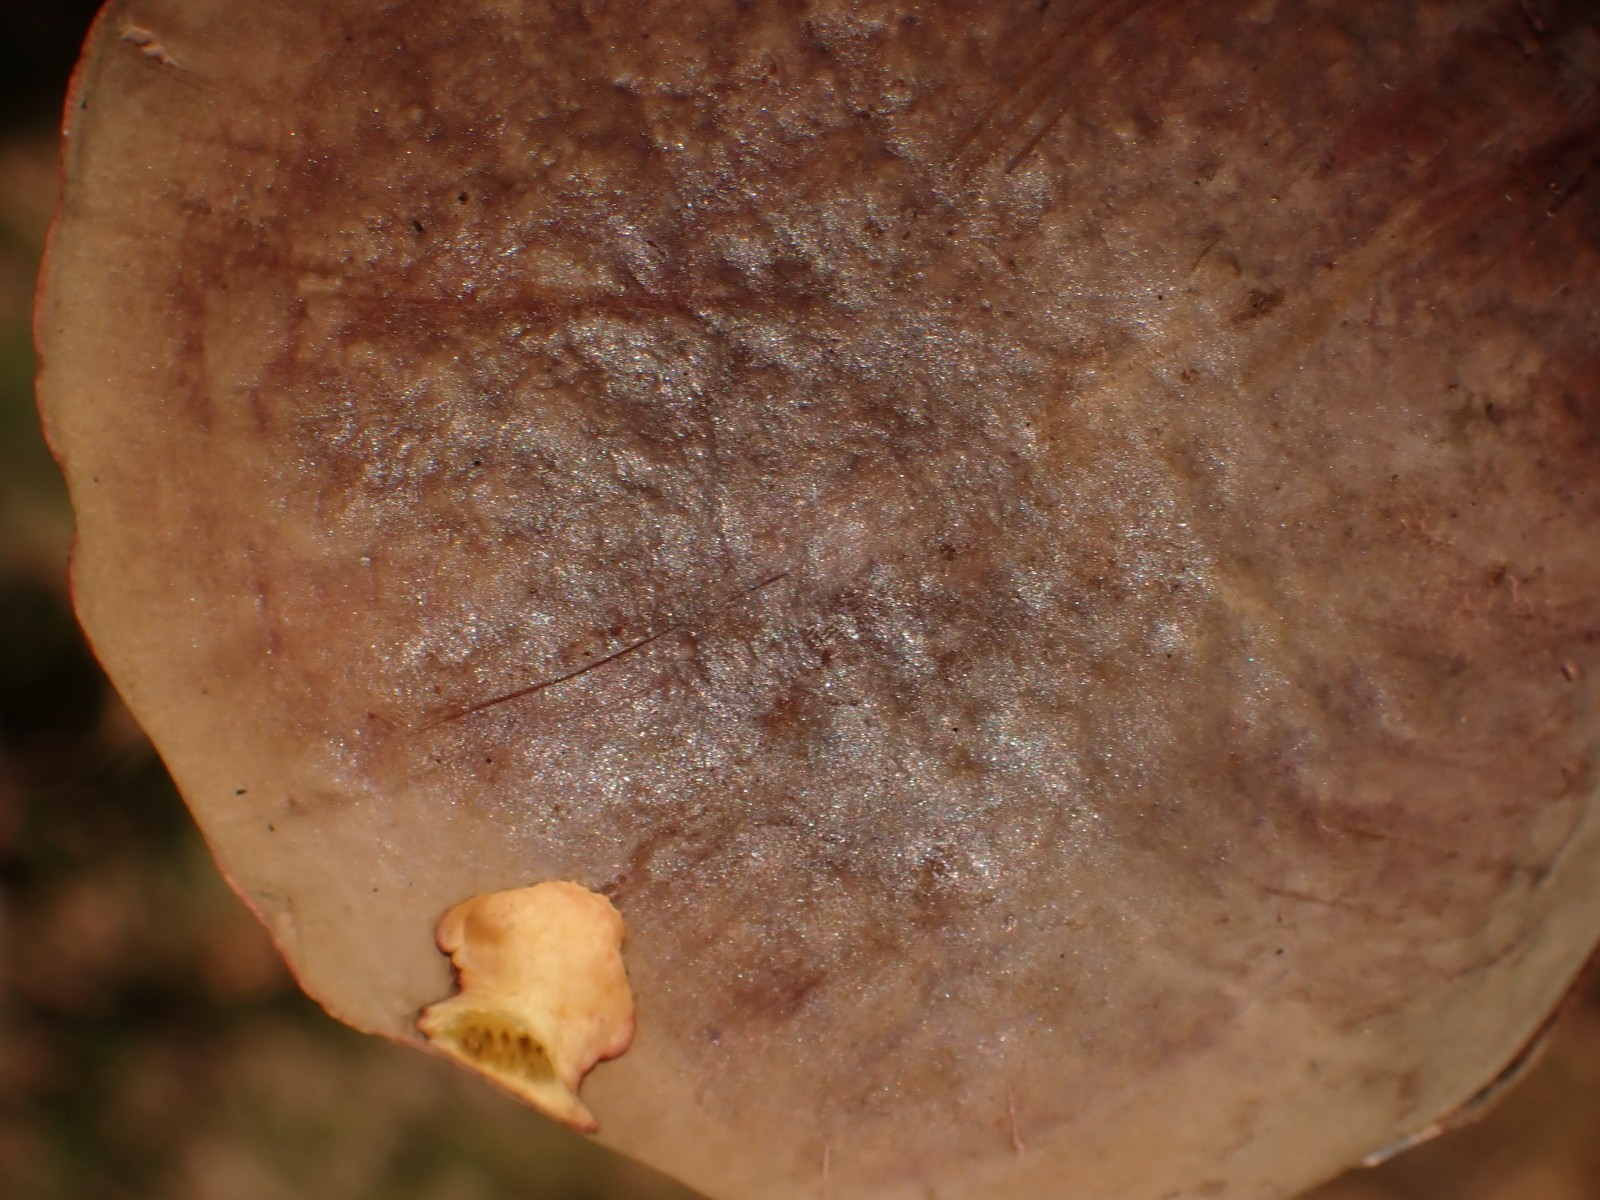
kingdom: Fungi
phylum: Basidiomycota
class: Agaricomycetes
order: Boletales
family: Boletaceae
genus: Xerocomellus
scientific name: Xerocomellus pruinatus
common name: dugget rørhat
